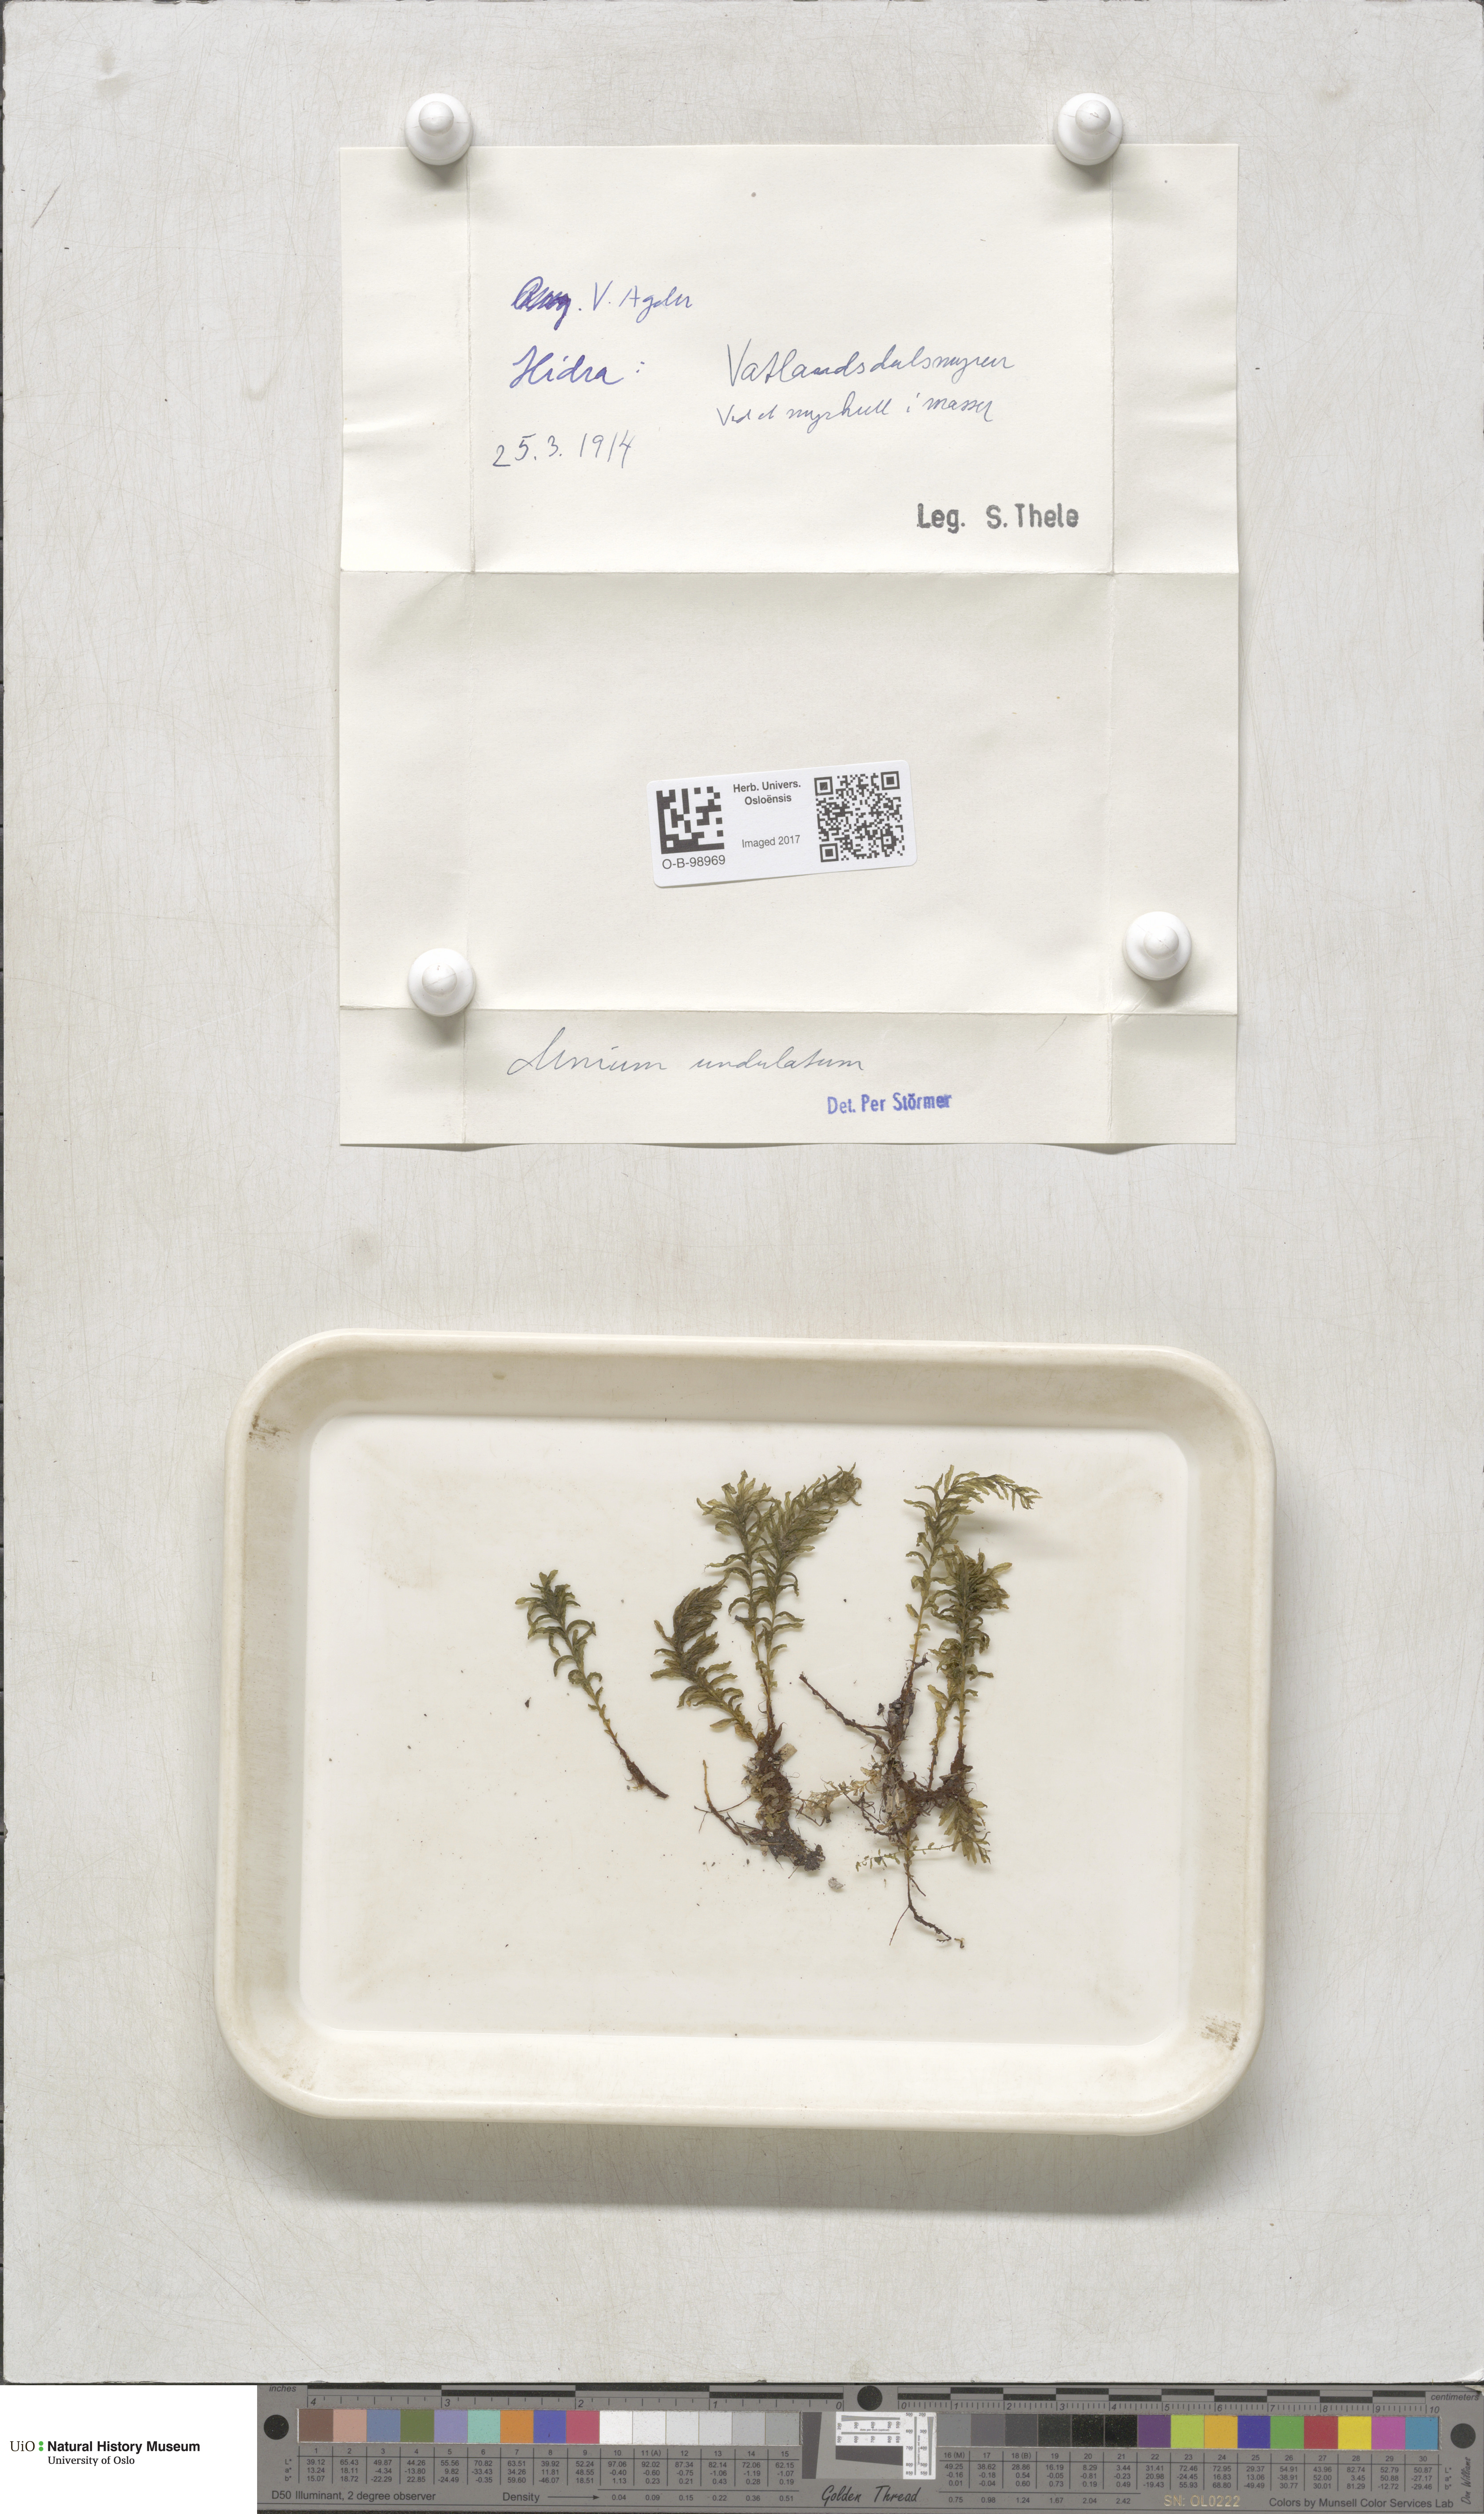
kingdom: Plantae
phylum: Bryophyta
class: Bryopsida
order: Bryales
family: Mniaceae
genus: Plagiomnium
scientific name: Plagiomnium undulatum
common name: Hart's-tongue thyme-moss
